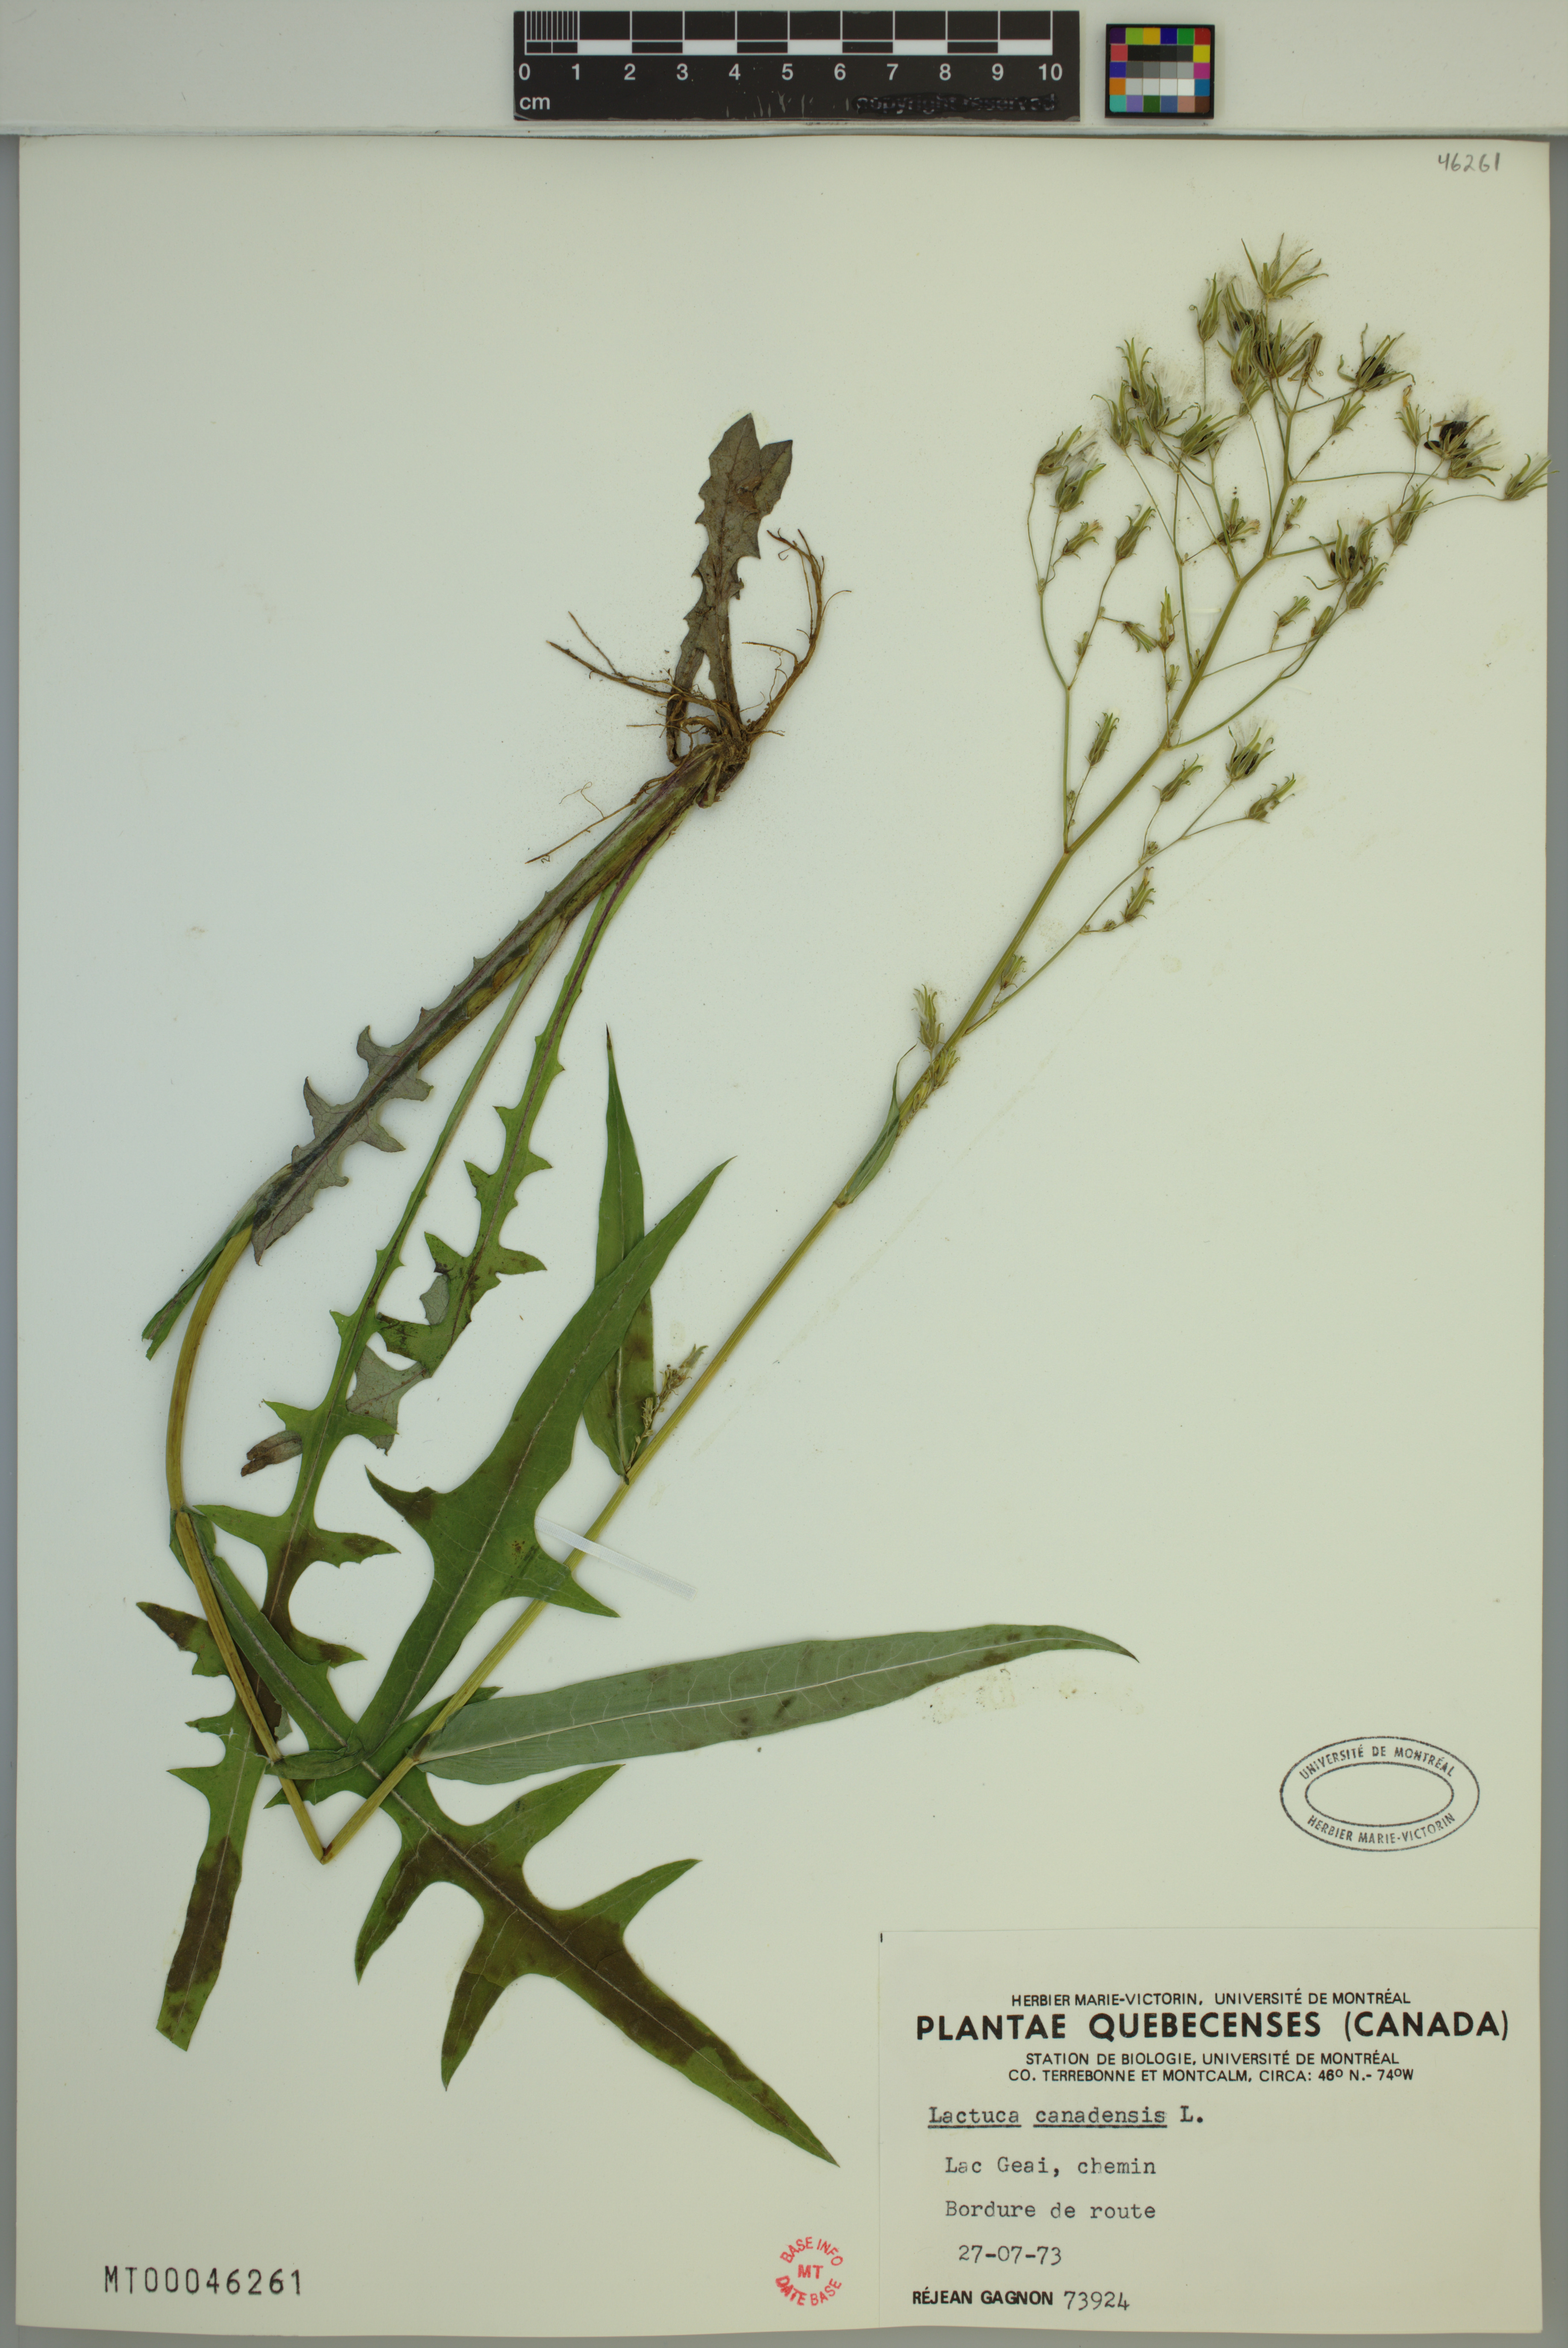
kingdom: Plantae
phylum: Tracheophyta
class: Magnoliopsida
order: Asterales
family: Asteraceae
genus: Lactuca
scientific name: Lactuca canadensis
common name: Canada lettuce
